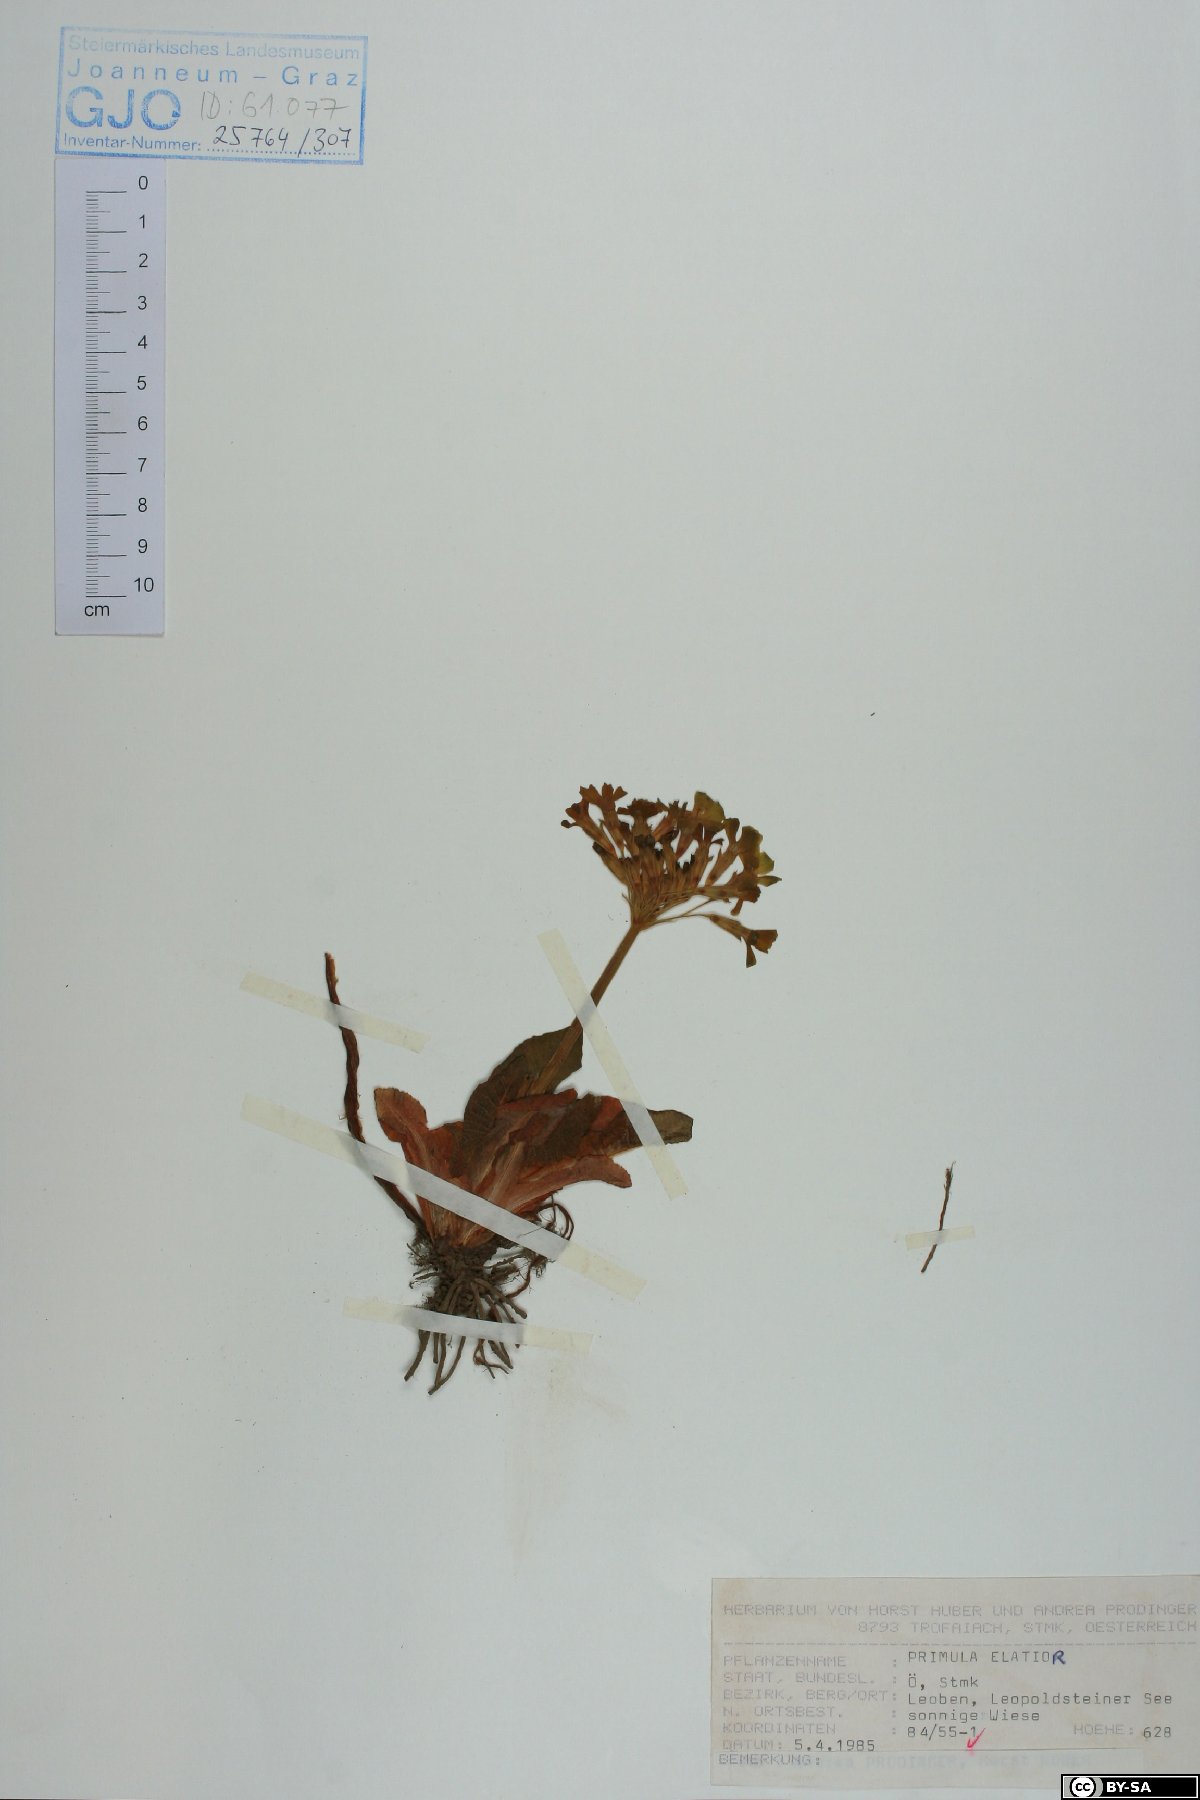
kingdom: Plantae
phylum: Tracheophyta
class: Magnoliopsida
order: Ericales
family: Primulaceae
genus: Primula
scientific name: Primula elatior
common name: Oxlip
